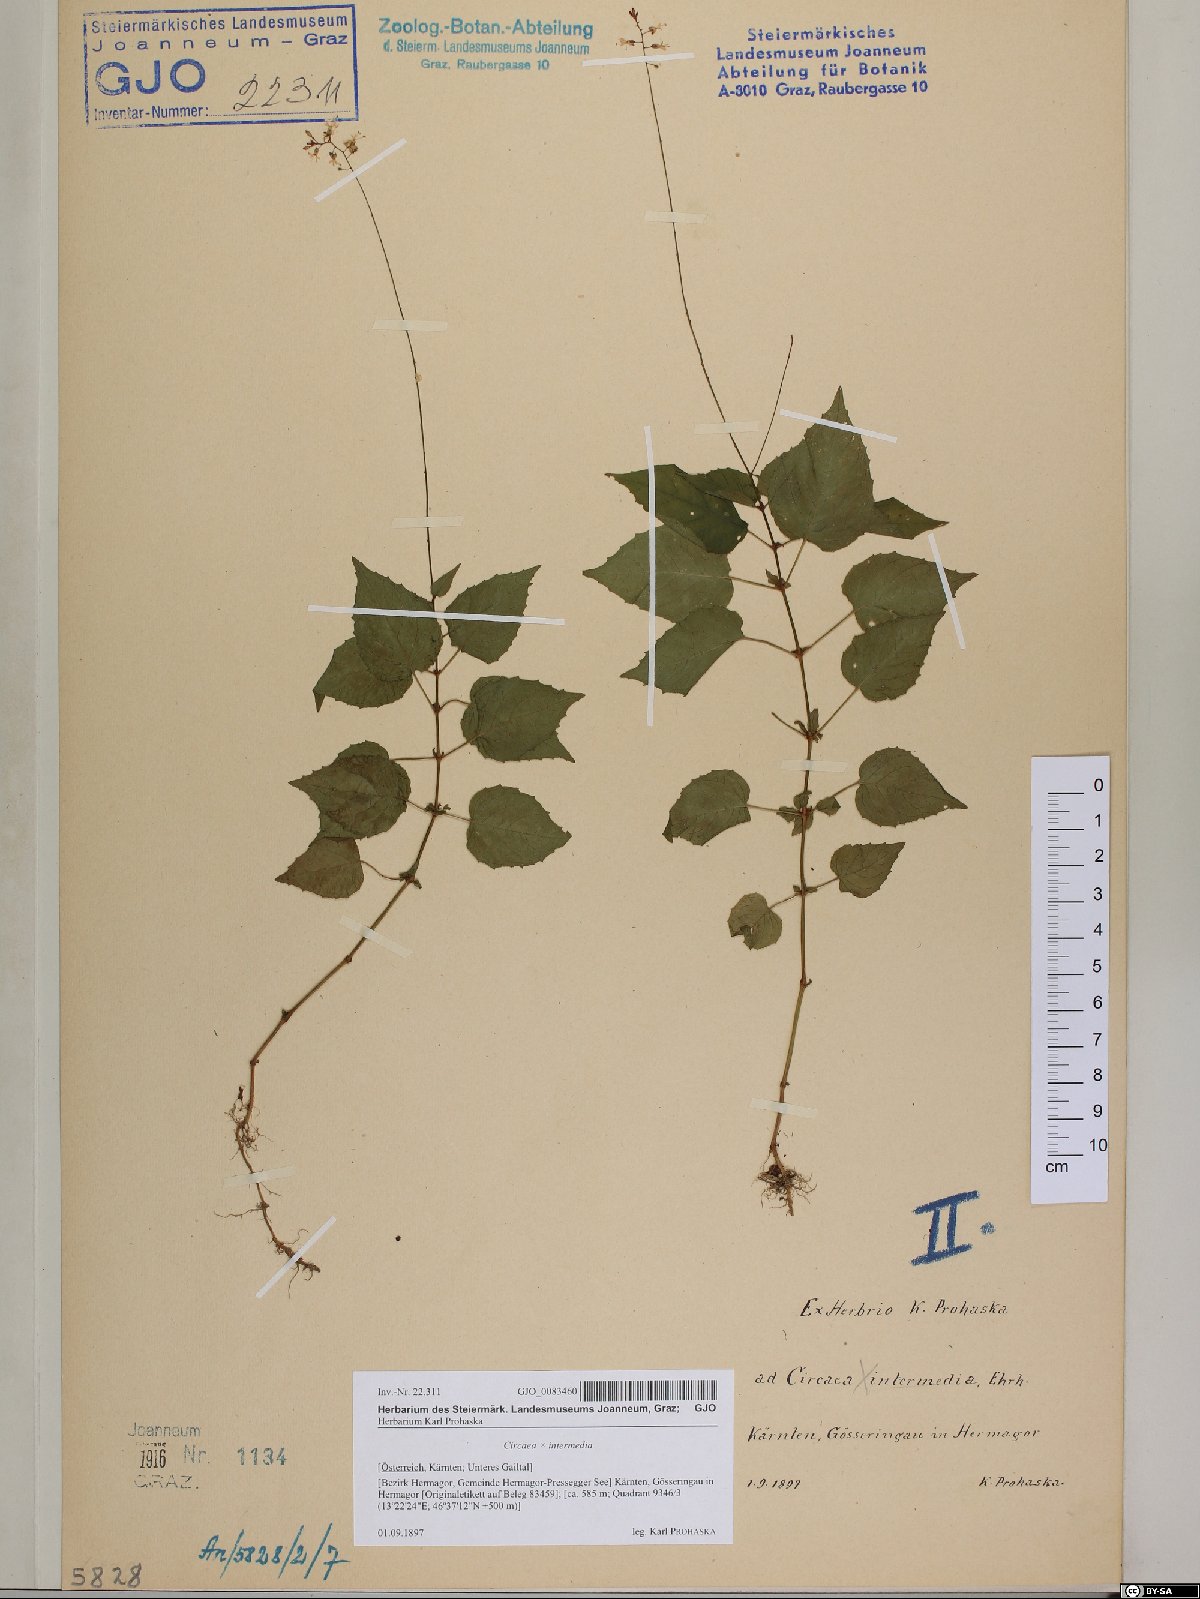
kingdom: Plantae
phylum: Tracheophyta
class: Magnoliopsida
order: Myrtales
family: Onagraceae
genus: Circaea
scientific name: Circaea intermedia
